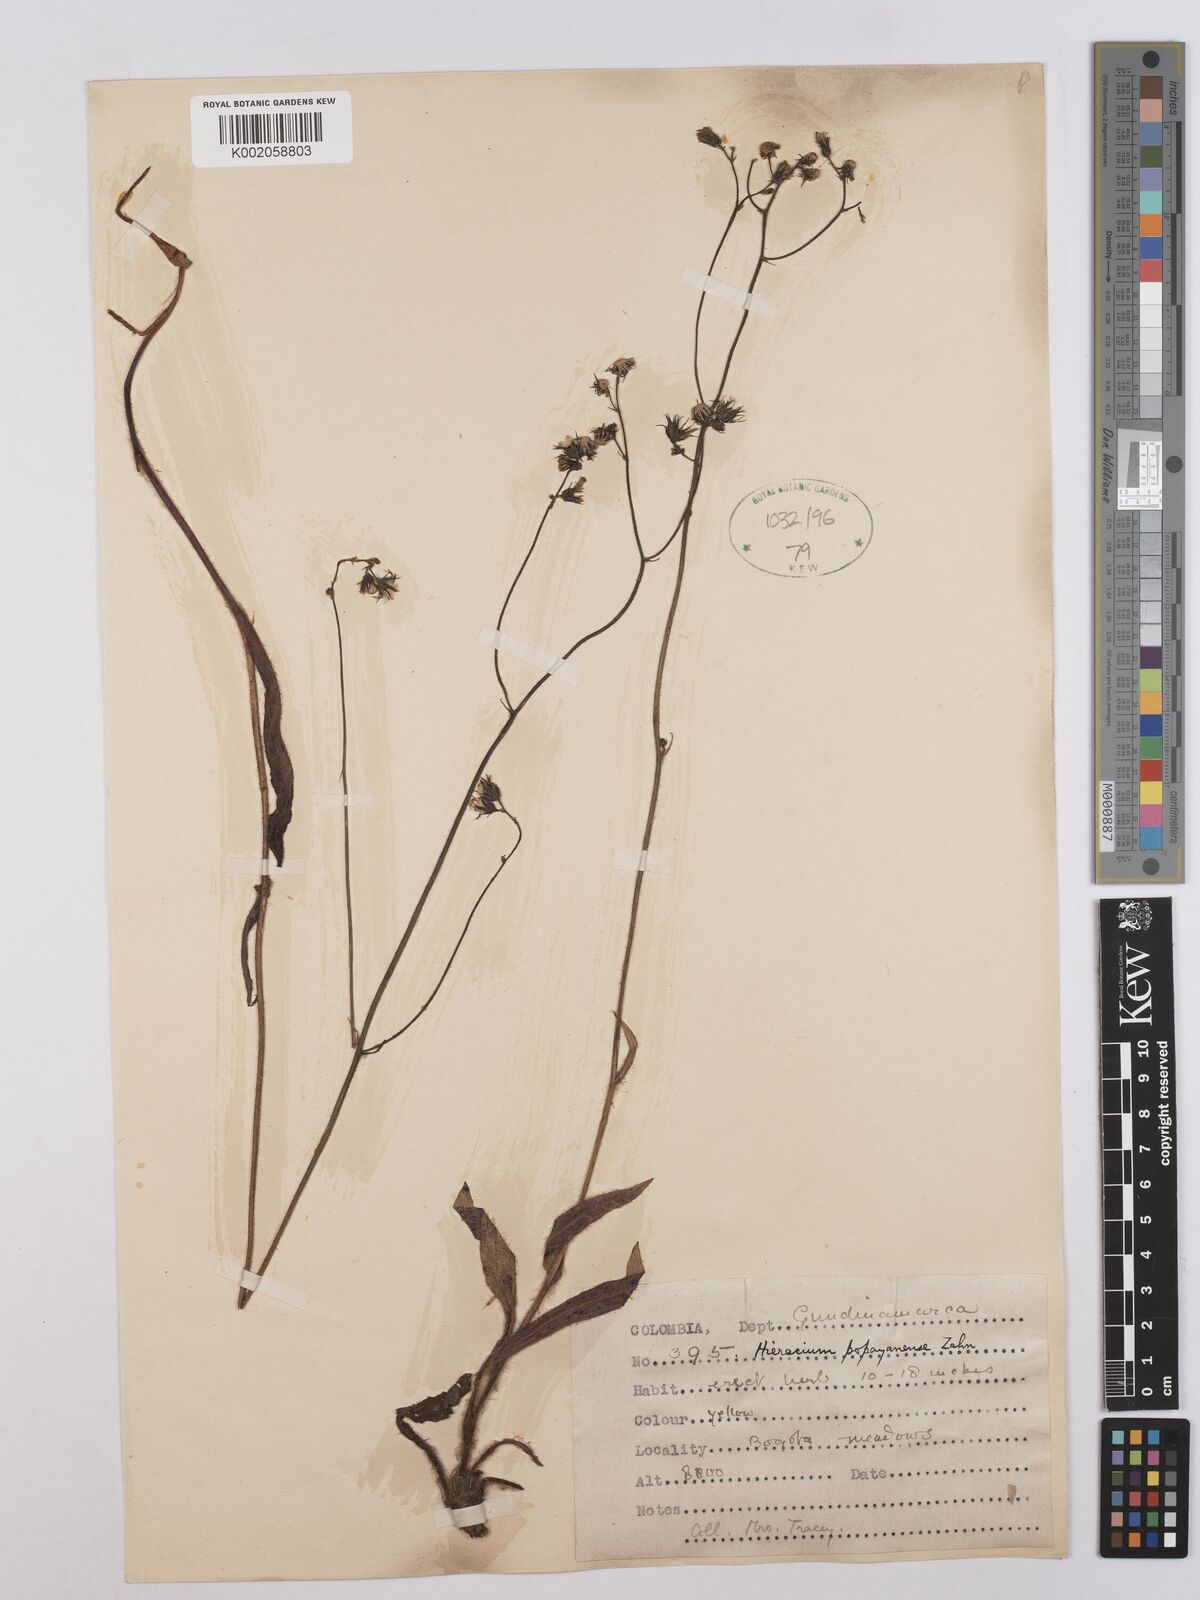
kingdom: Plantae
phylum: Tracheophyta
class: Magnoliopsida
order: Asterales
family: Asteraceae
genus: Hieracium
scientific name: Hieracium popayanense
